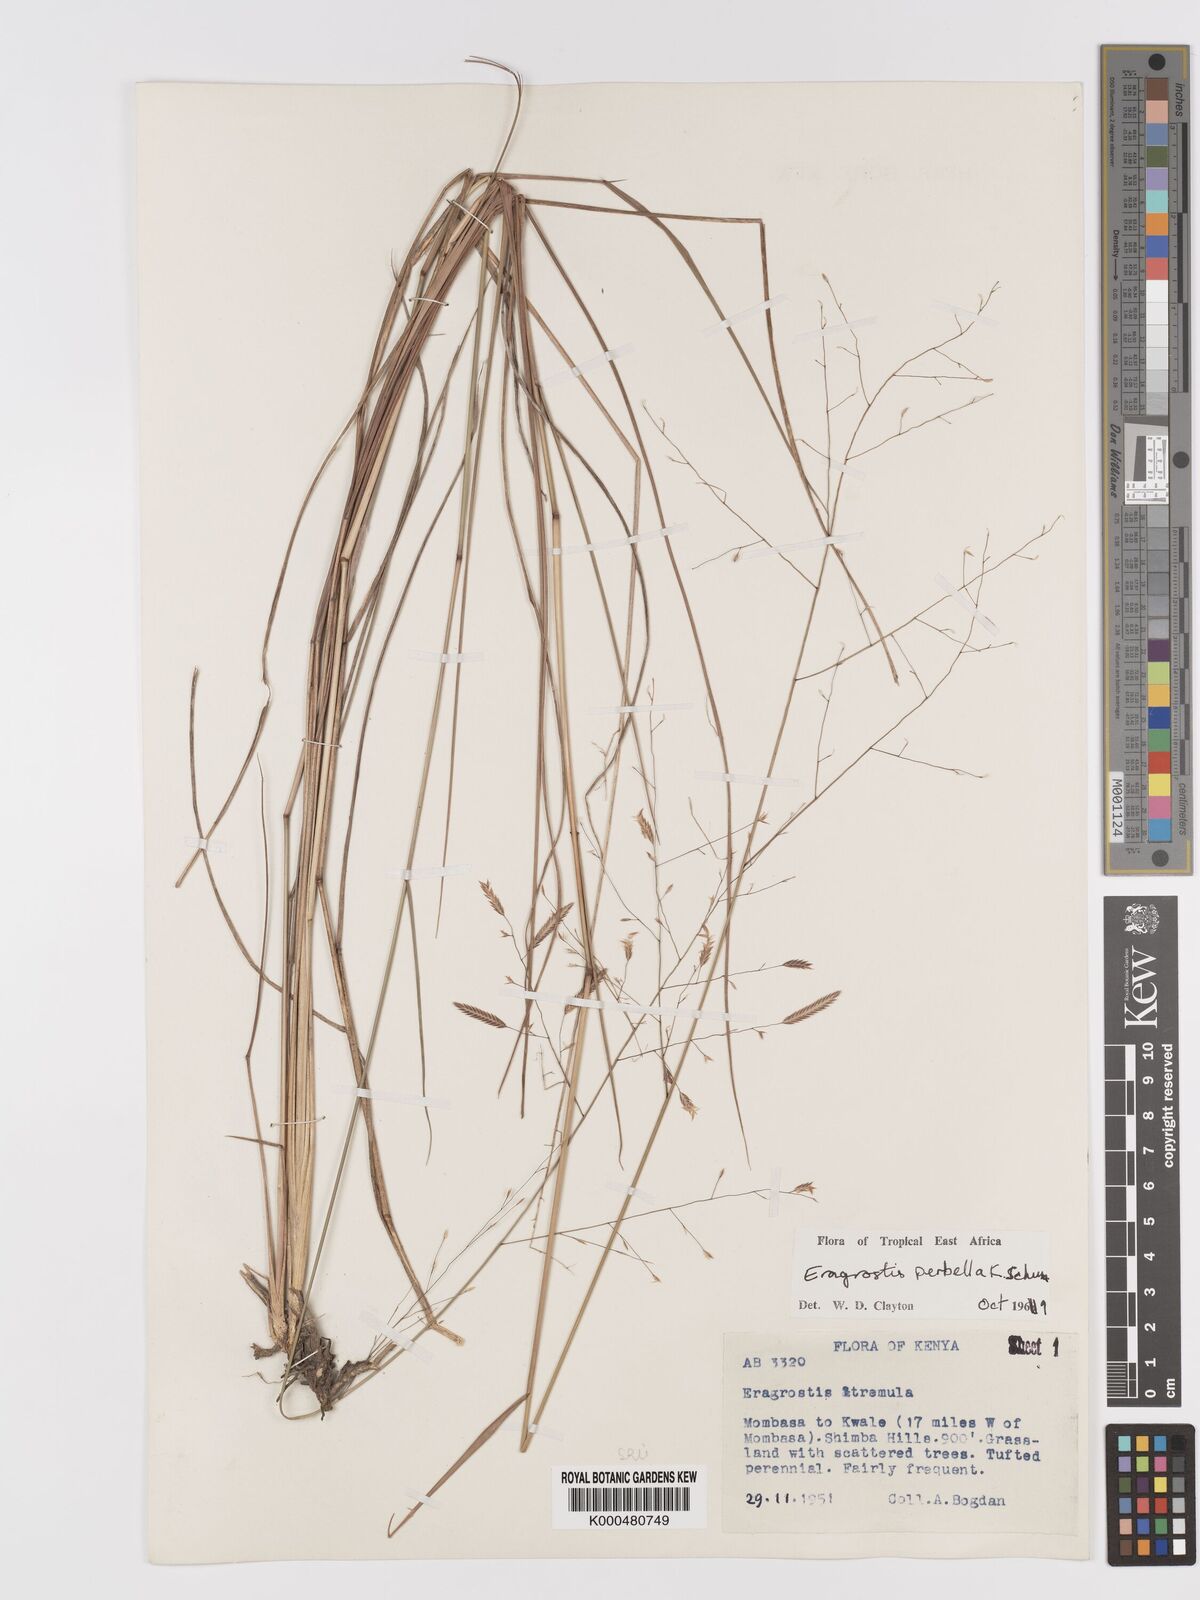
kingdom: Plantae
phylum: Tracheophyta
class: Liliopsida
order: Poales
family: Poaceae
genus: Eragrostis
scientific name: Eragrostis perbella
